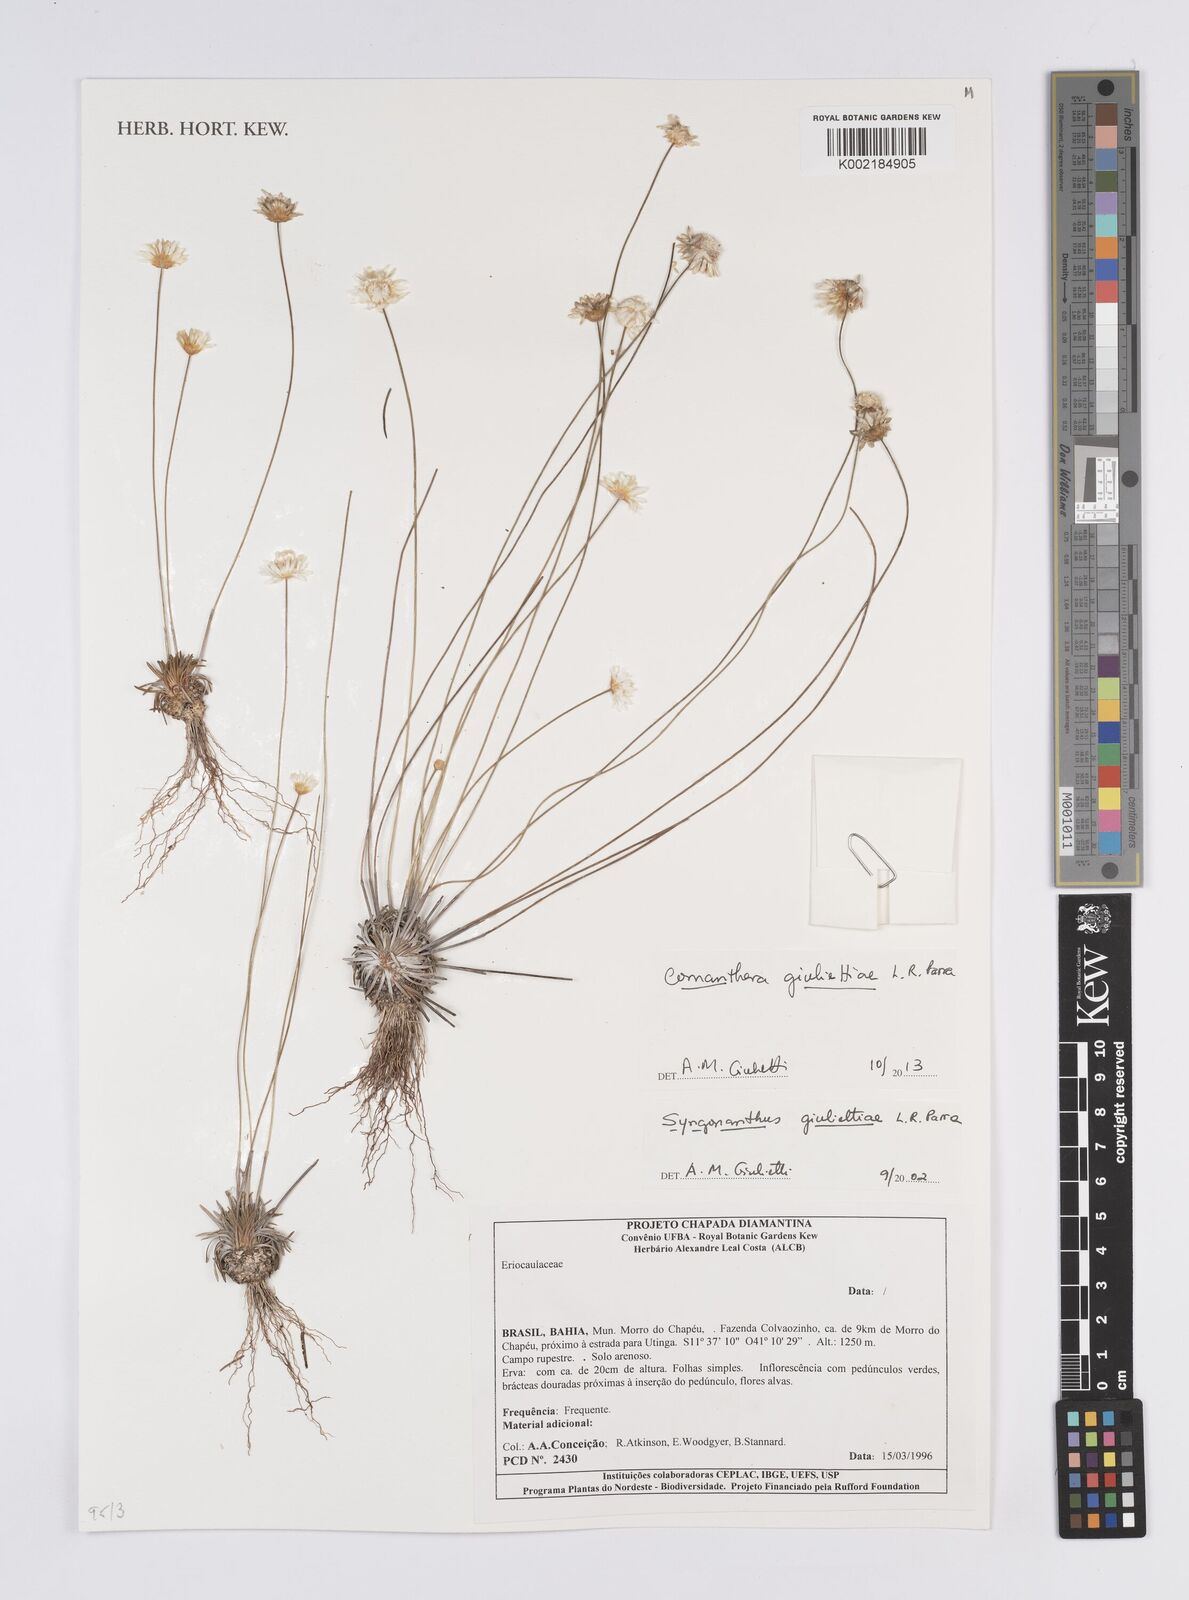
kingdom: Plantae
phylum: Tracheophyta
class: Liliopsida
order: Poales
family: Eriocaulaceae
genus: Comanthera
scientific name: Comanthera giuliettiae
